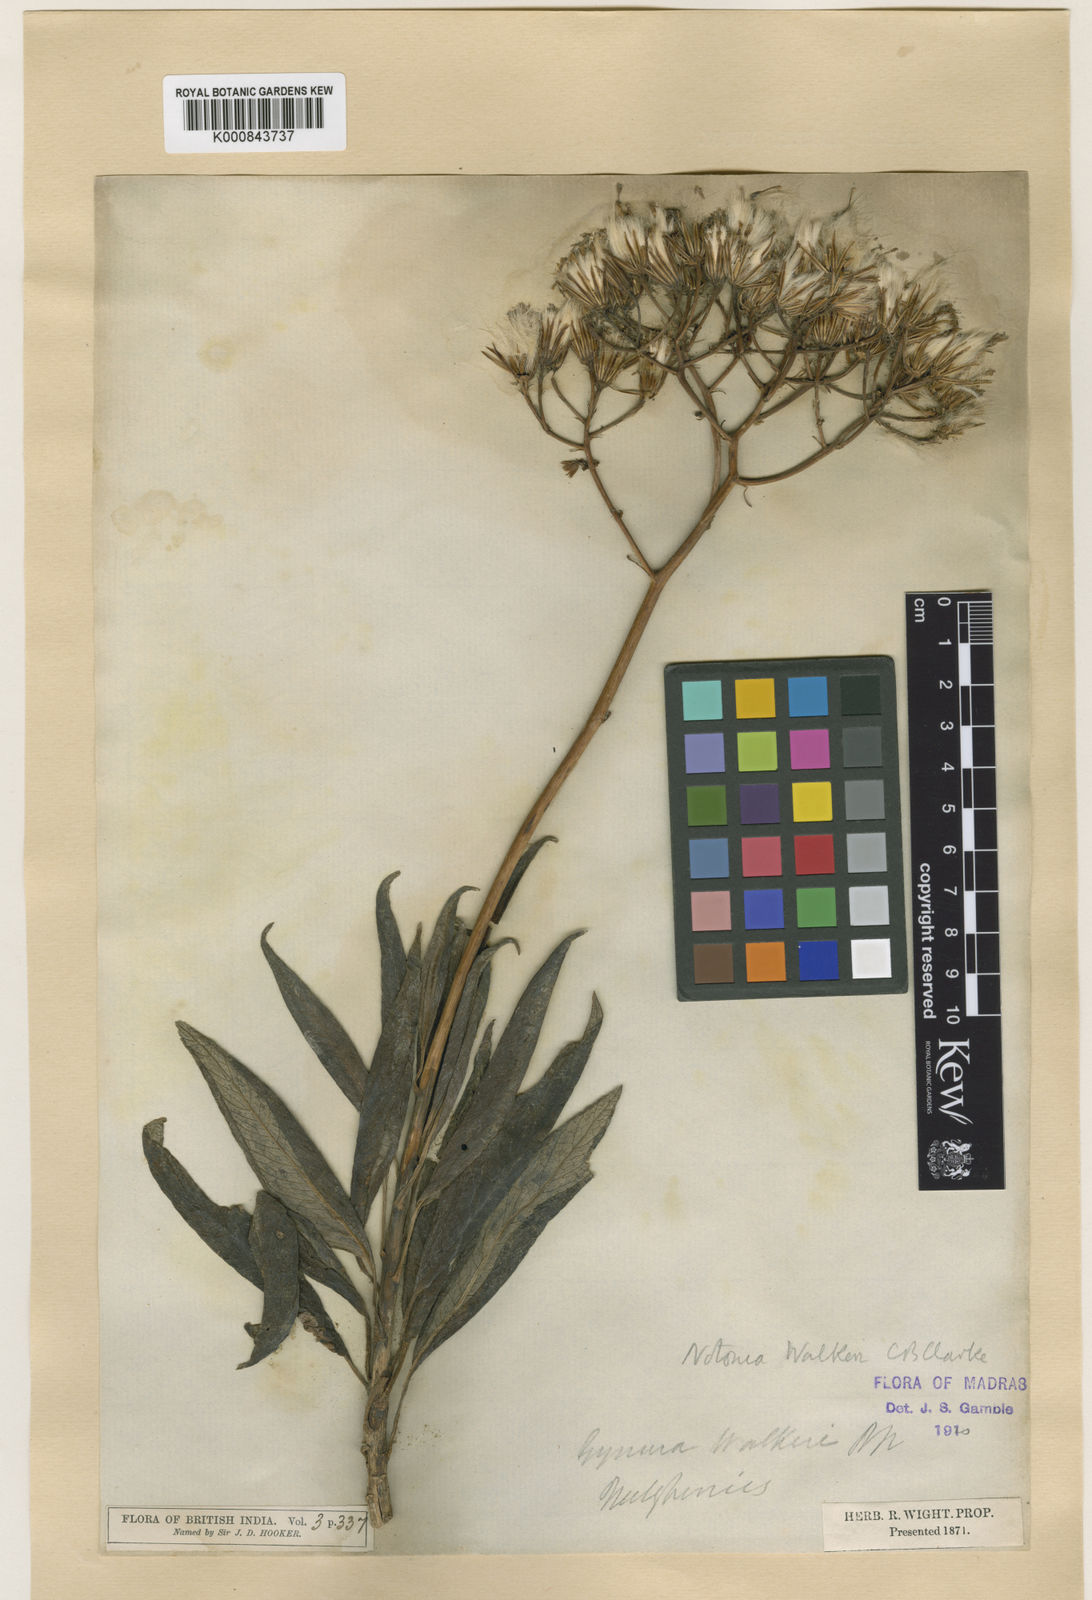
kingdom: Plantae
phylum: Tracheophyta
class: Magnoliopsida
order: Asterales
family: Asteraceae
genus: Kleinia
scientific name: Kleinia
